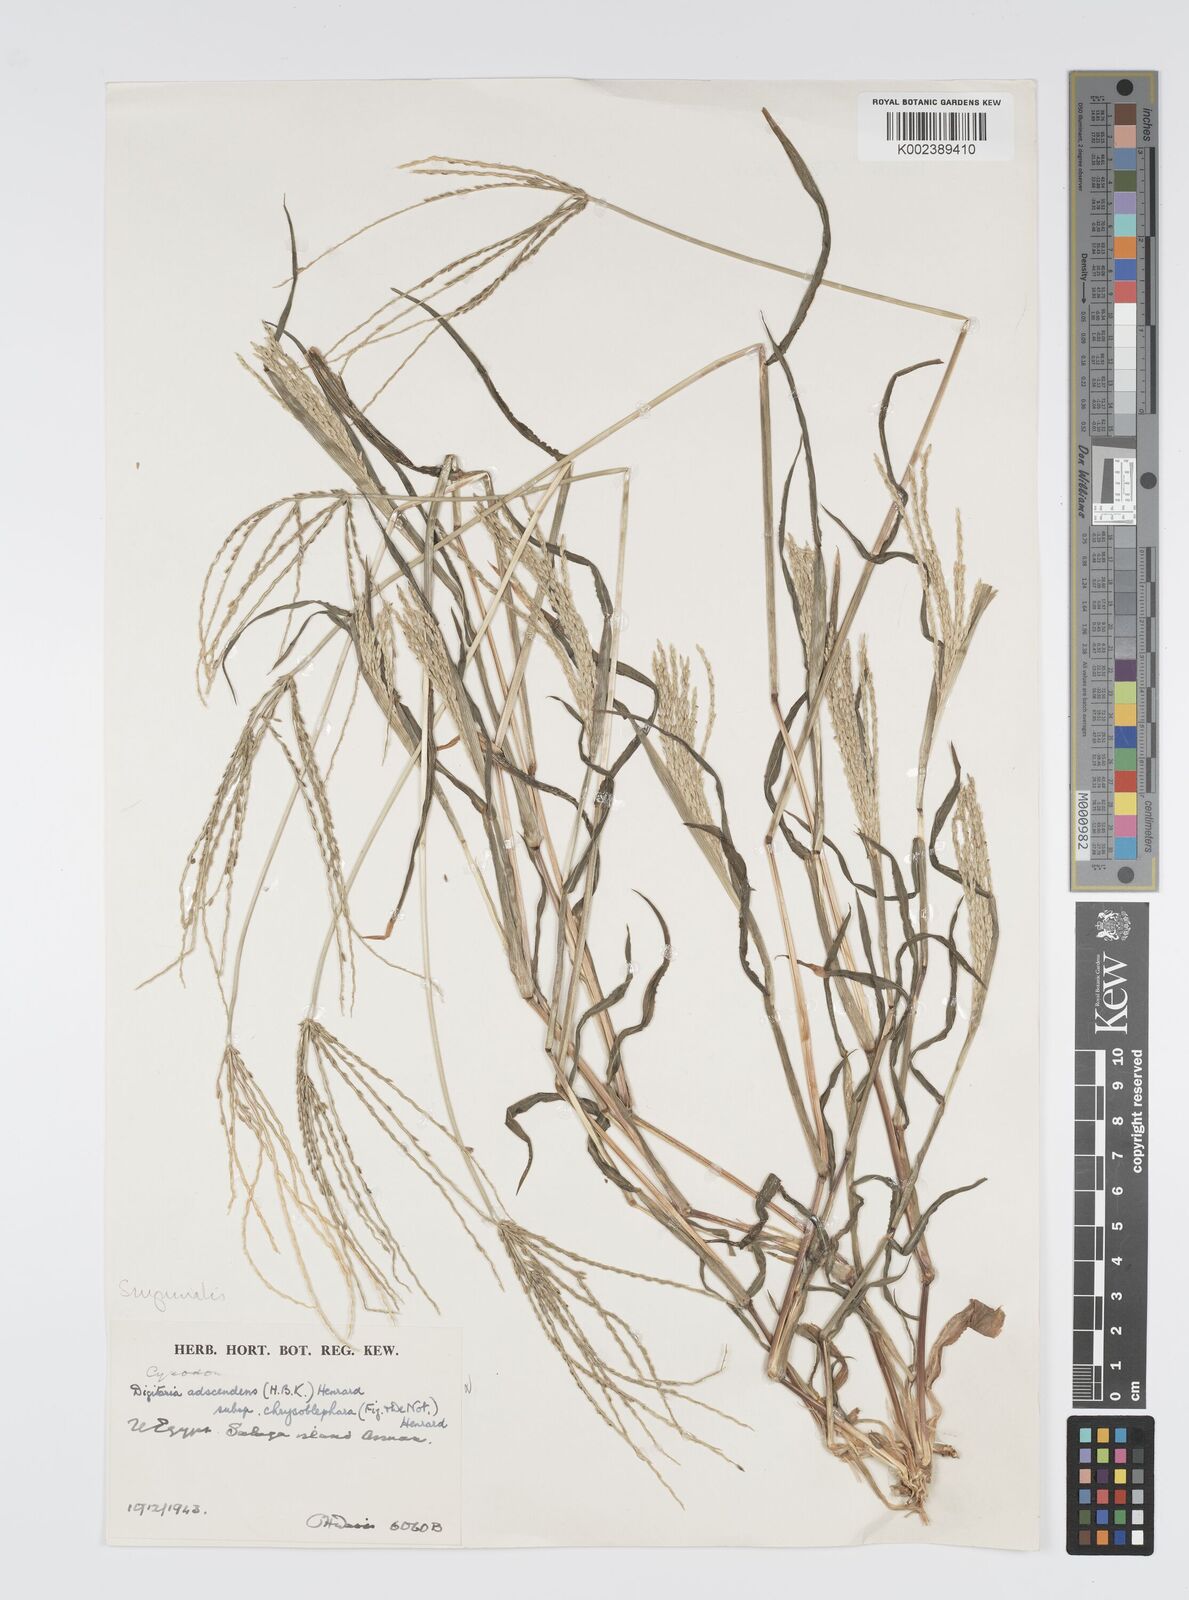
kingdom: Plantae
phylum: Tracheophyta
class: Liliopsida
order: Poales
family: Poaceae
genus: Digitaria
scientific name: Digitaria sanguinalis
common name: Hairy crabgrass
